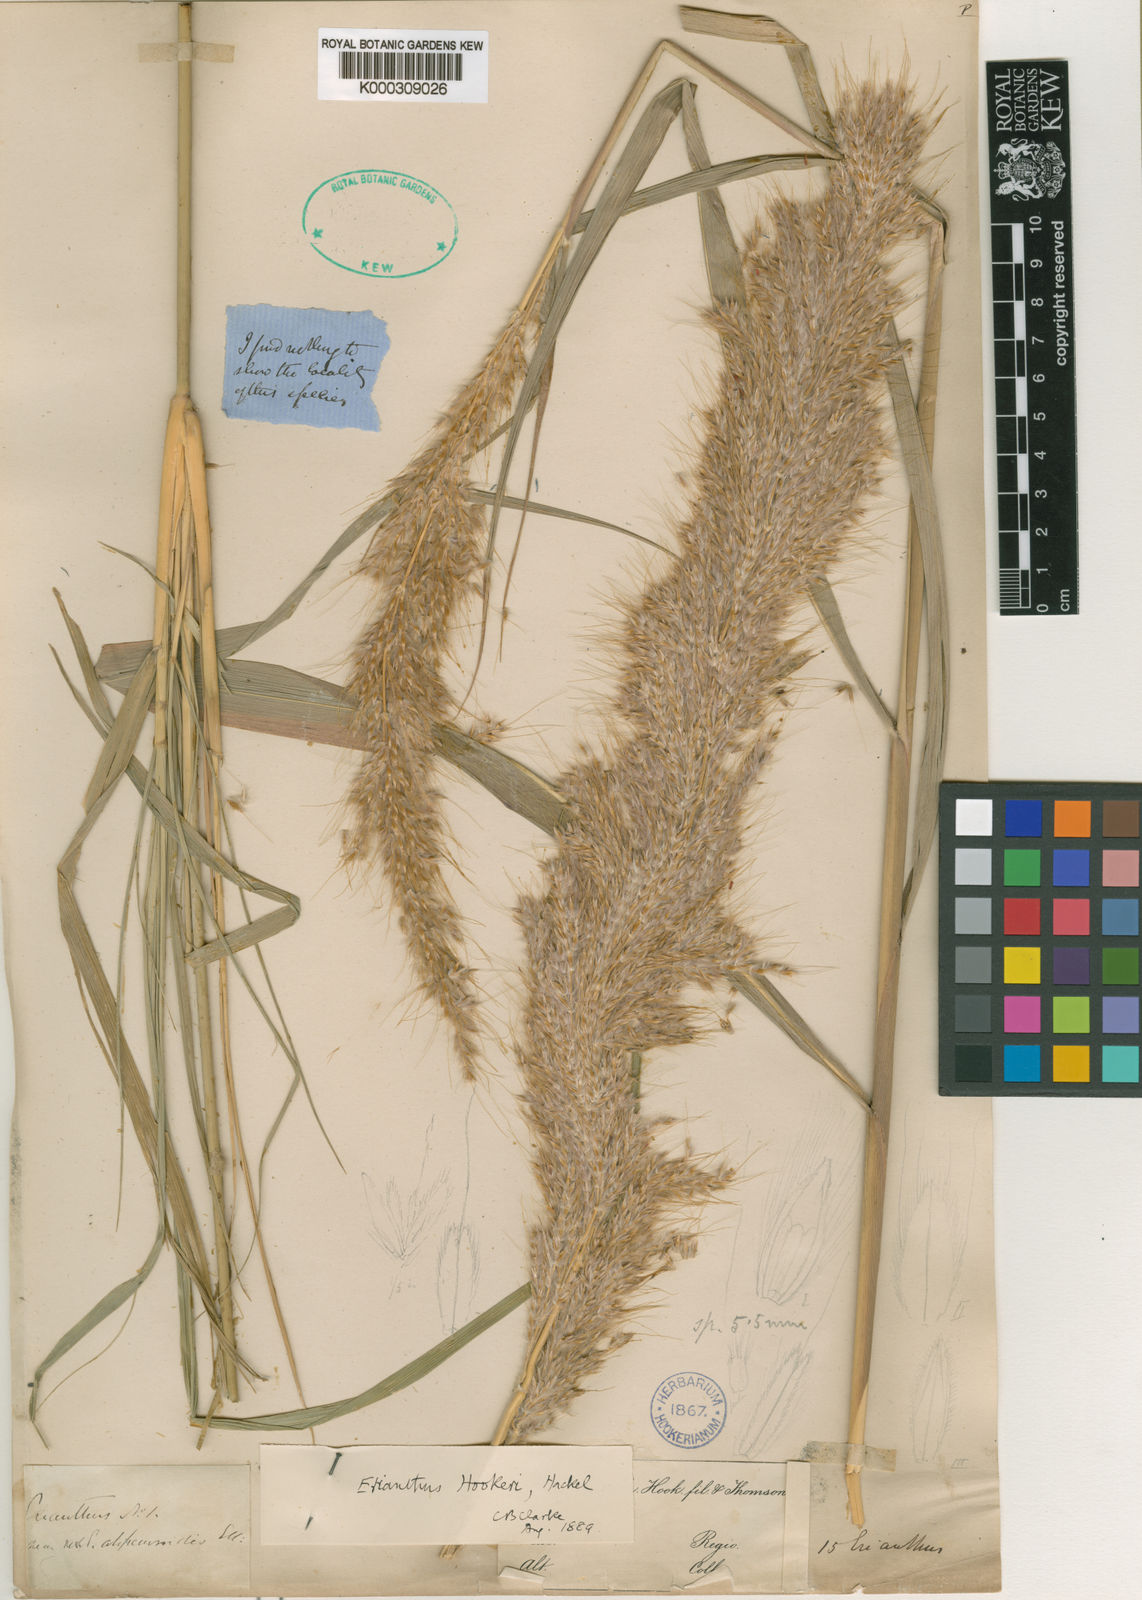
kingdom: Plantae
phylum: Tracheophyta
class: Liliopsida
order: Poales
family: Poaceae
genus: Saccharum
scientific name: Saccharum
